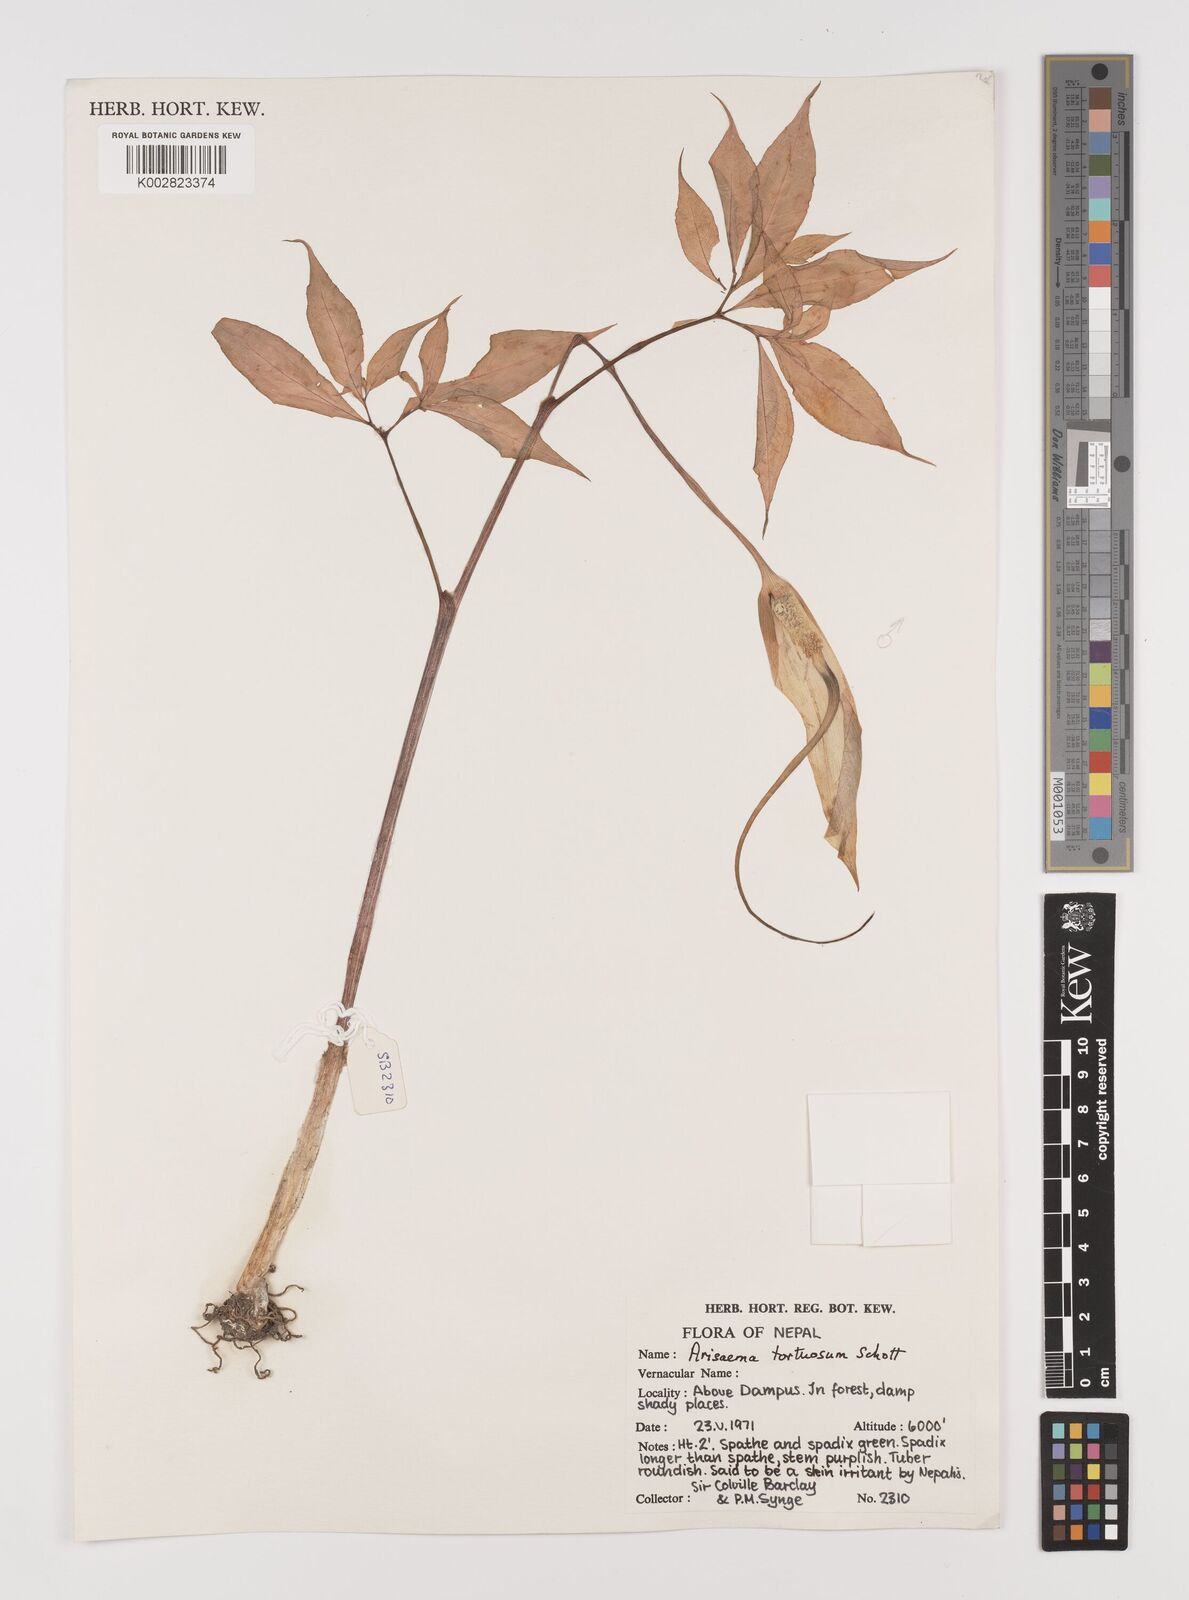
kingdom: Plantae
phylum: Tracheophyta
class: Liliopsida
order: Alismatales
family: Araceae
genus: Arisaema
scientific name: Arisaema tortuosum
